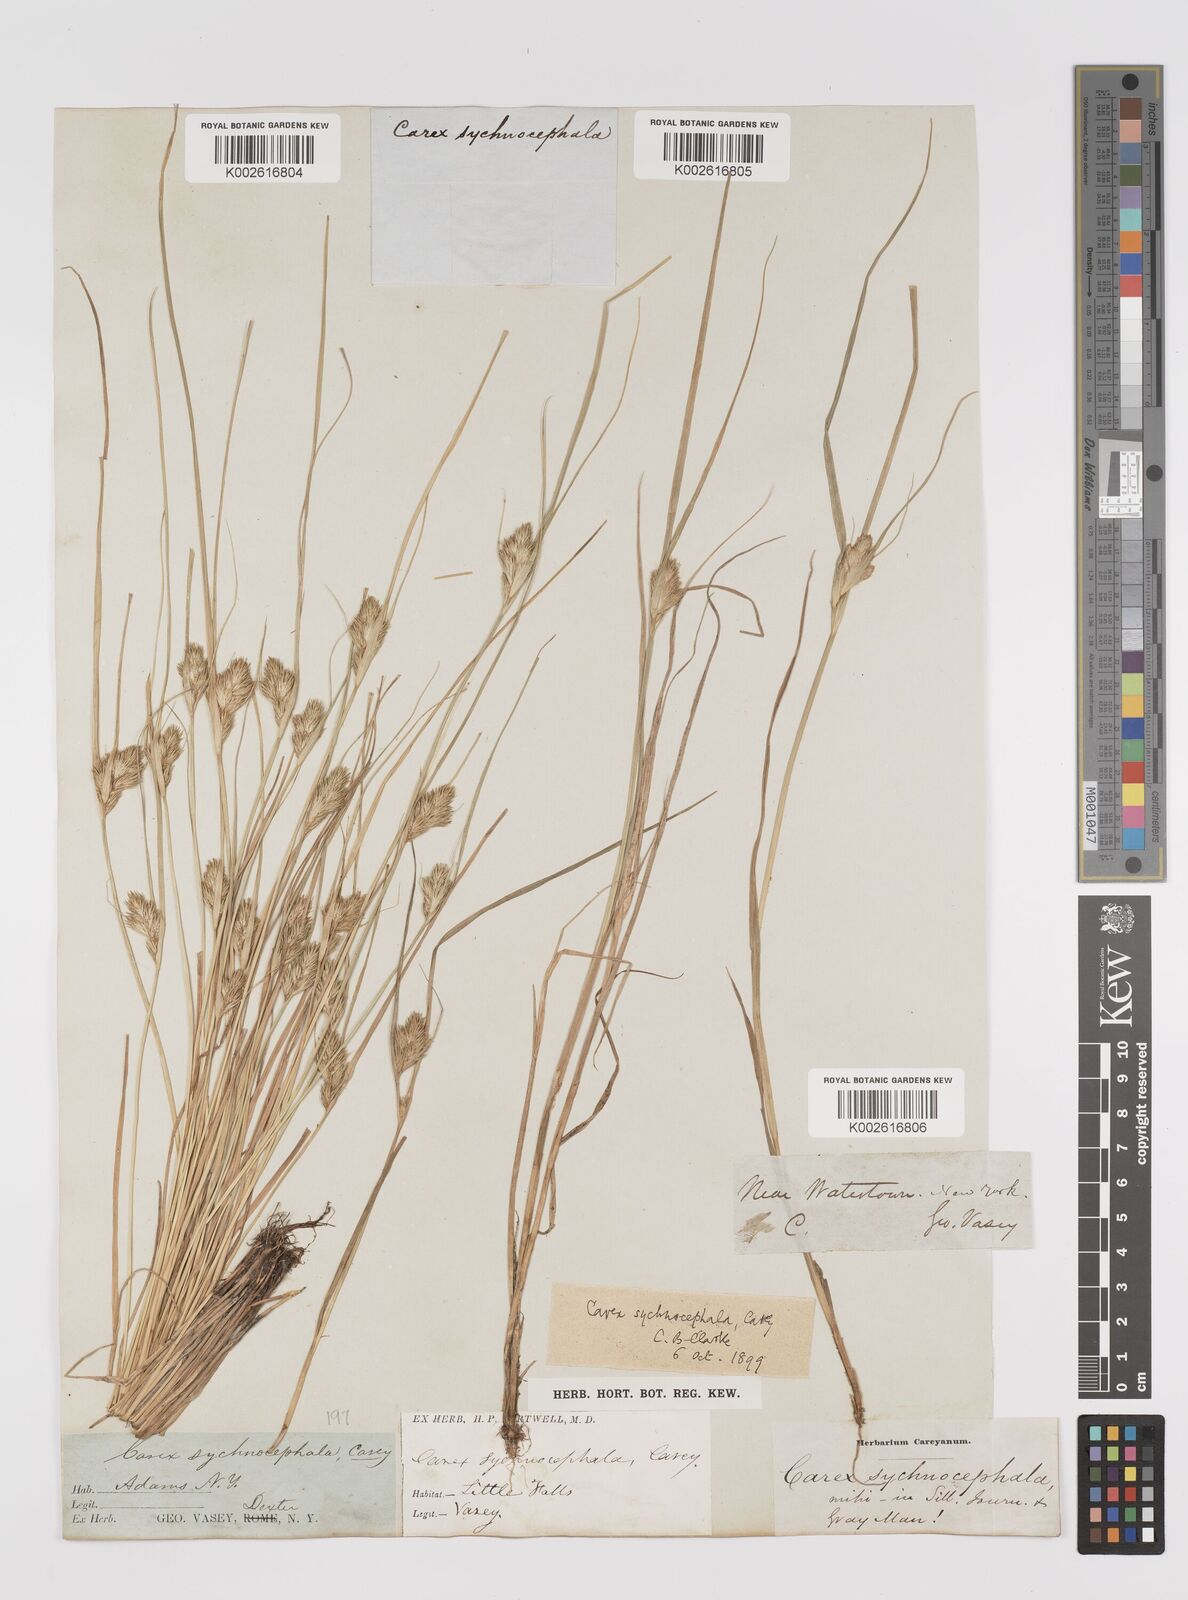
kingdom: Plantae
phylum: Tracheophyta
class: Liliopsida
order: Poales
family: Cyperaceae
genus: Carex
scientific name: Carex sychnocephala
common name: Dense long-beaked sedge
